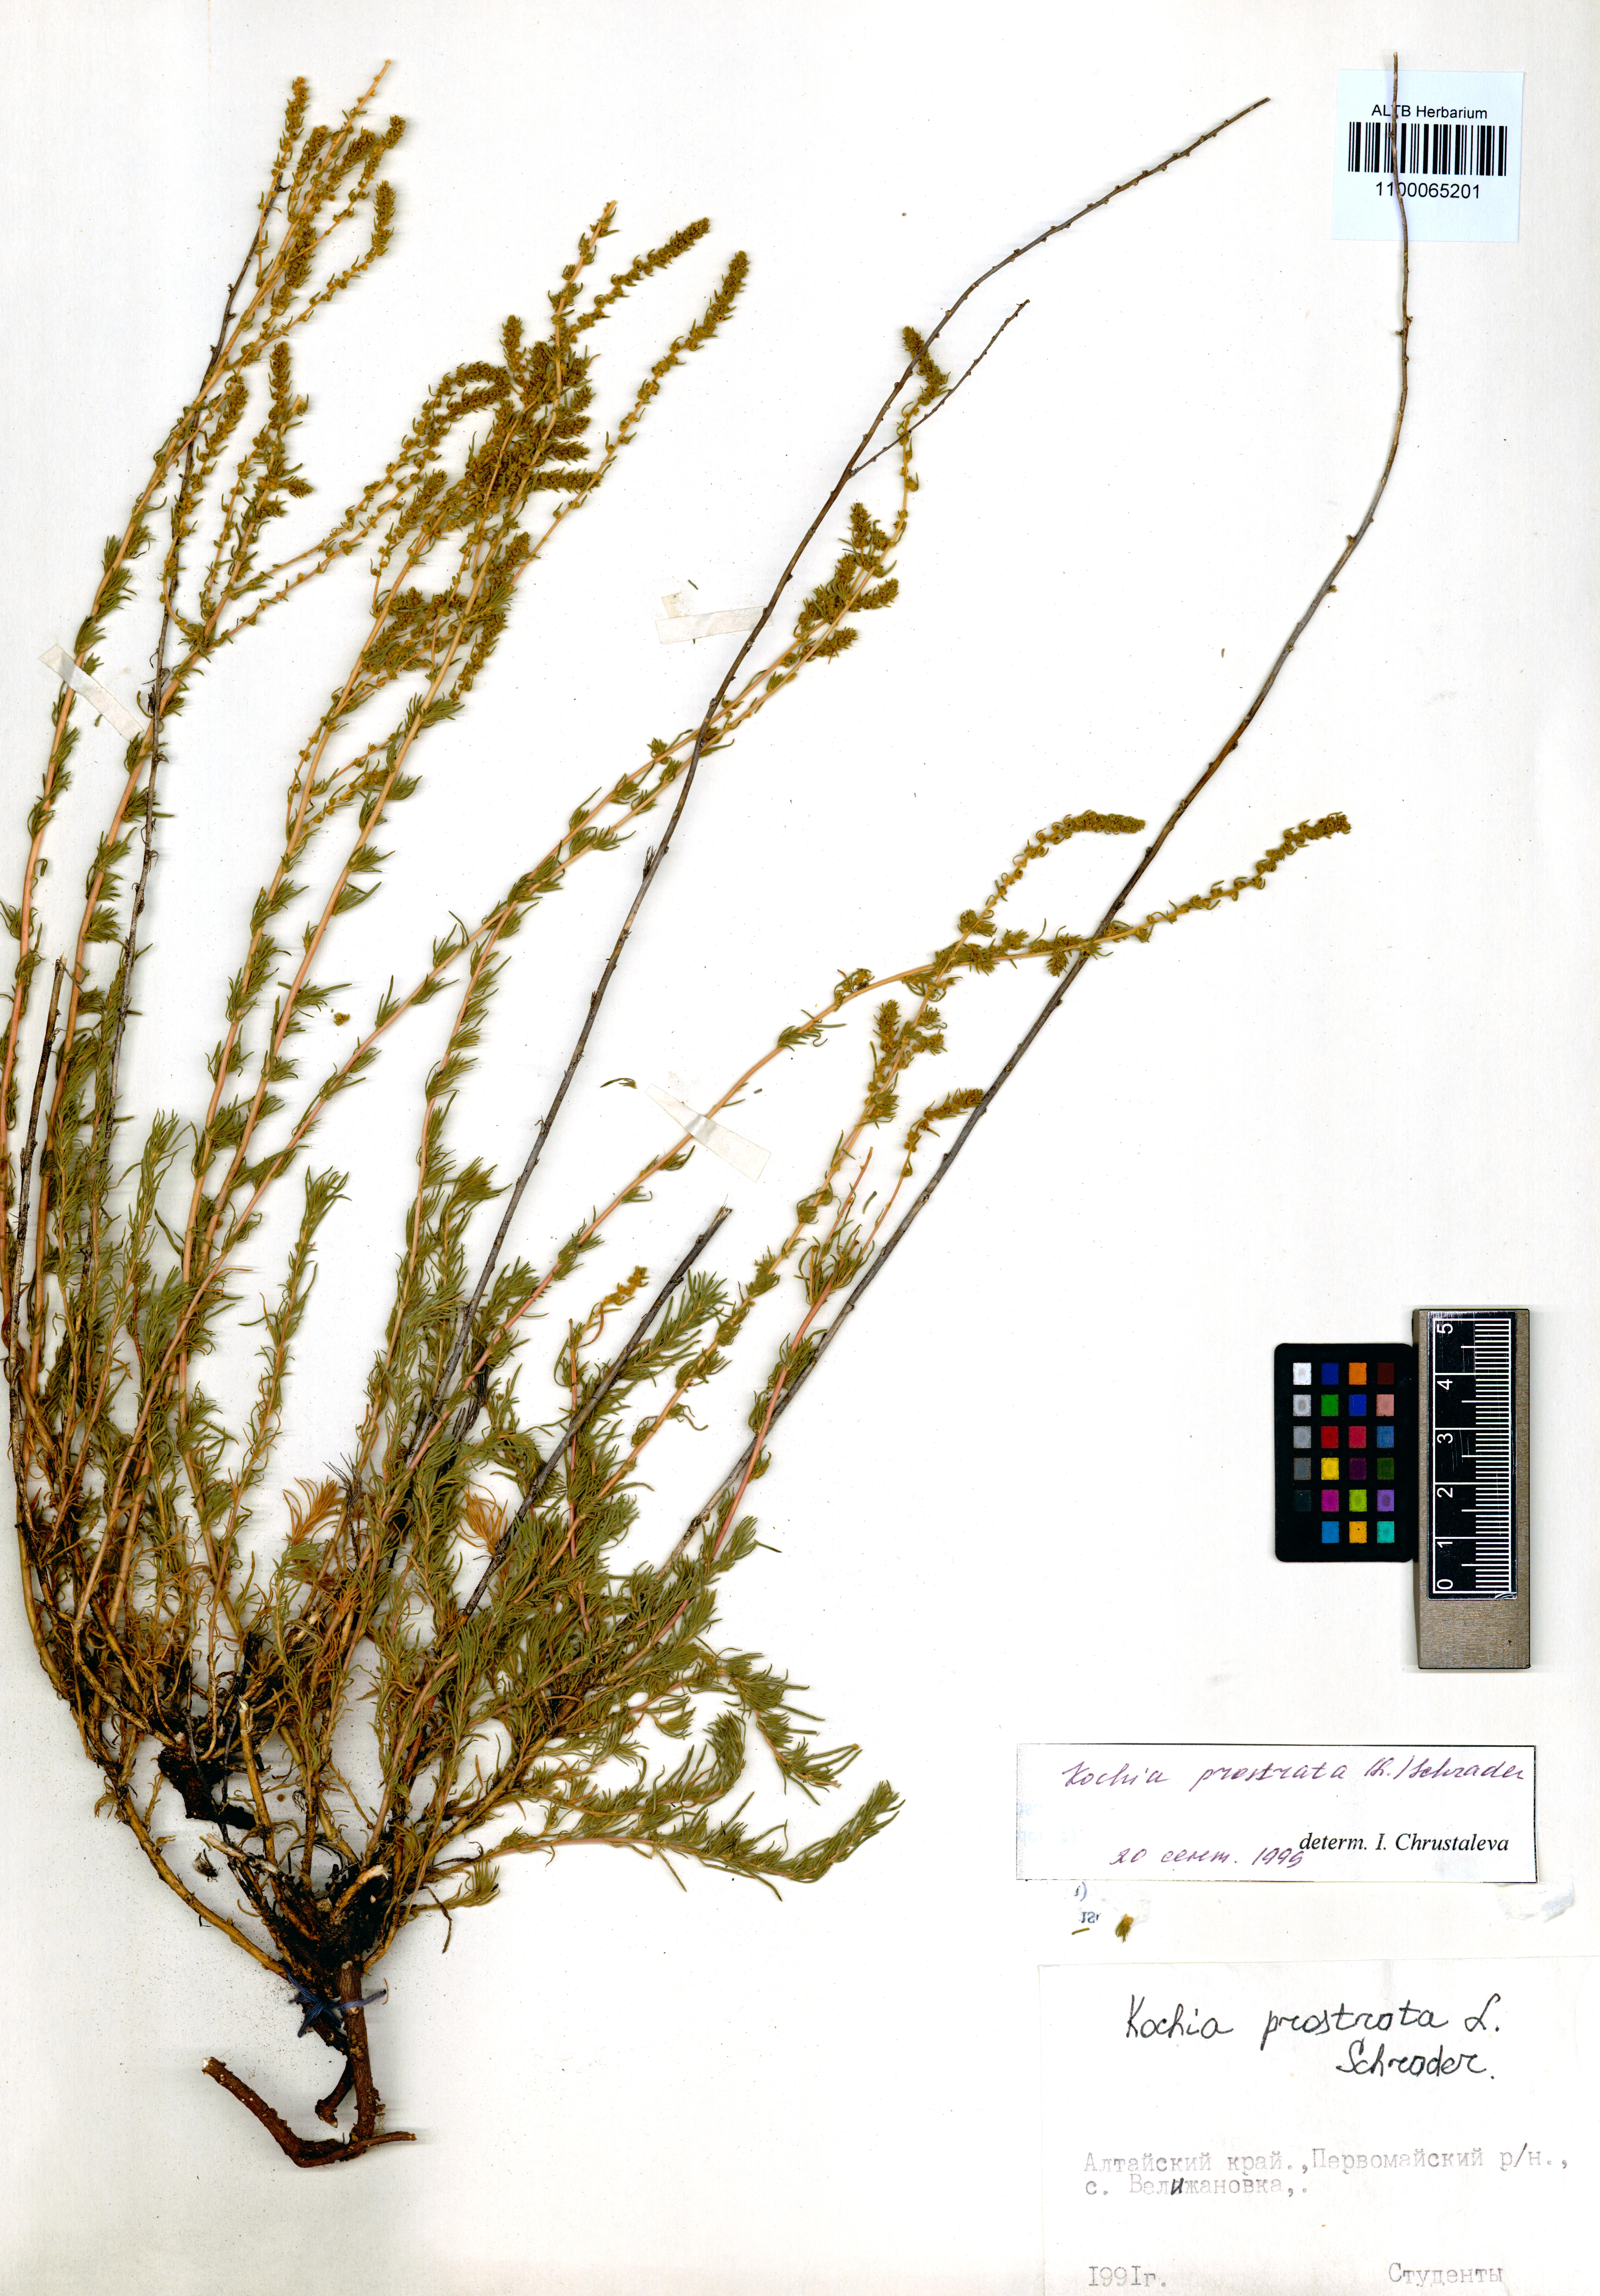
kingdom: Plantae
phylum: Tracheophyta
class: Magnoliopsida
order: Caryophyllales
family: Amaranthaceae
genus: Bassia
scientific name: Bassia prostrata
